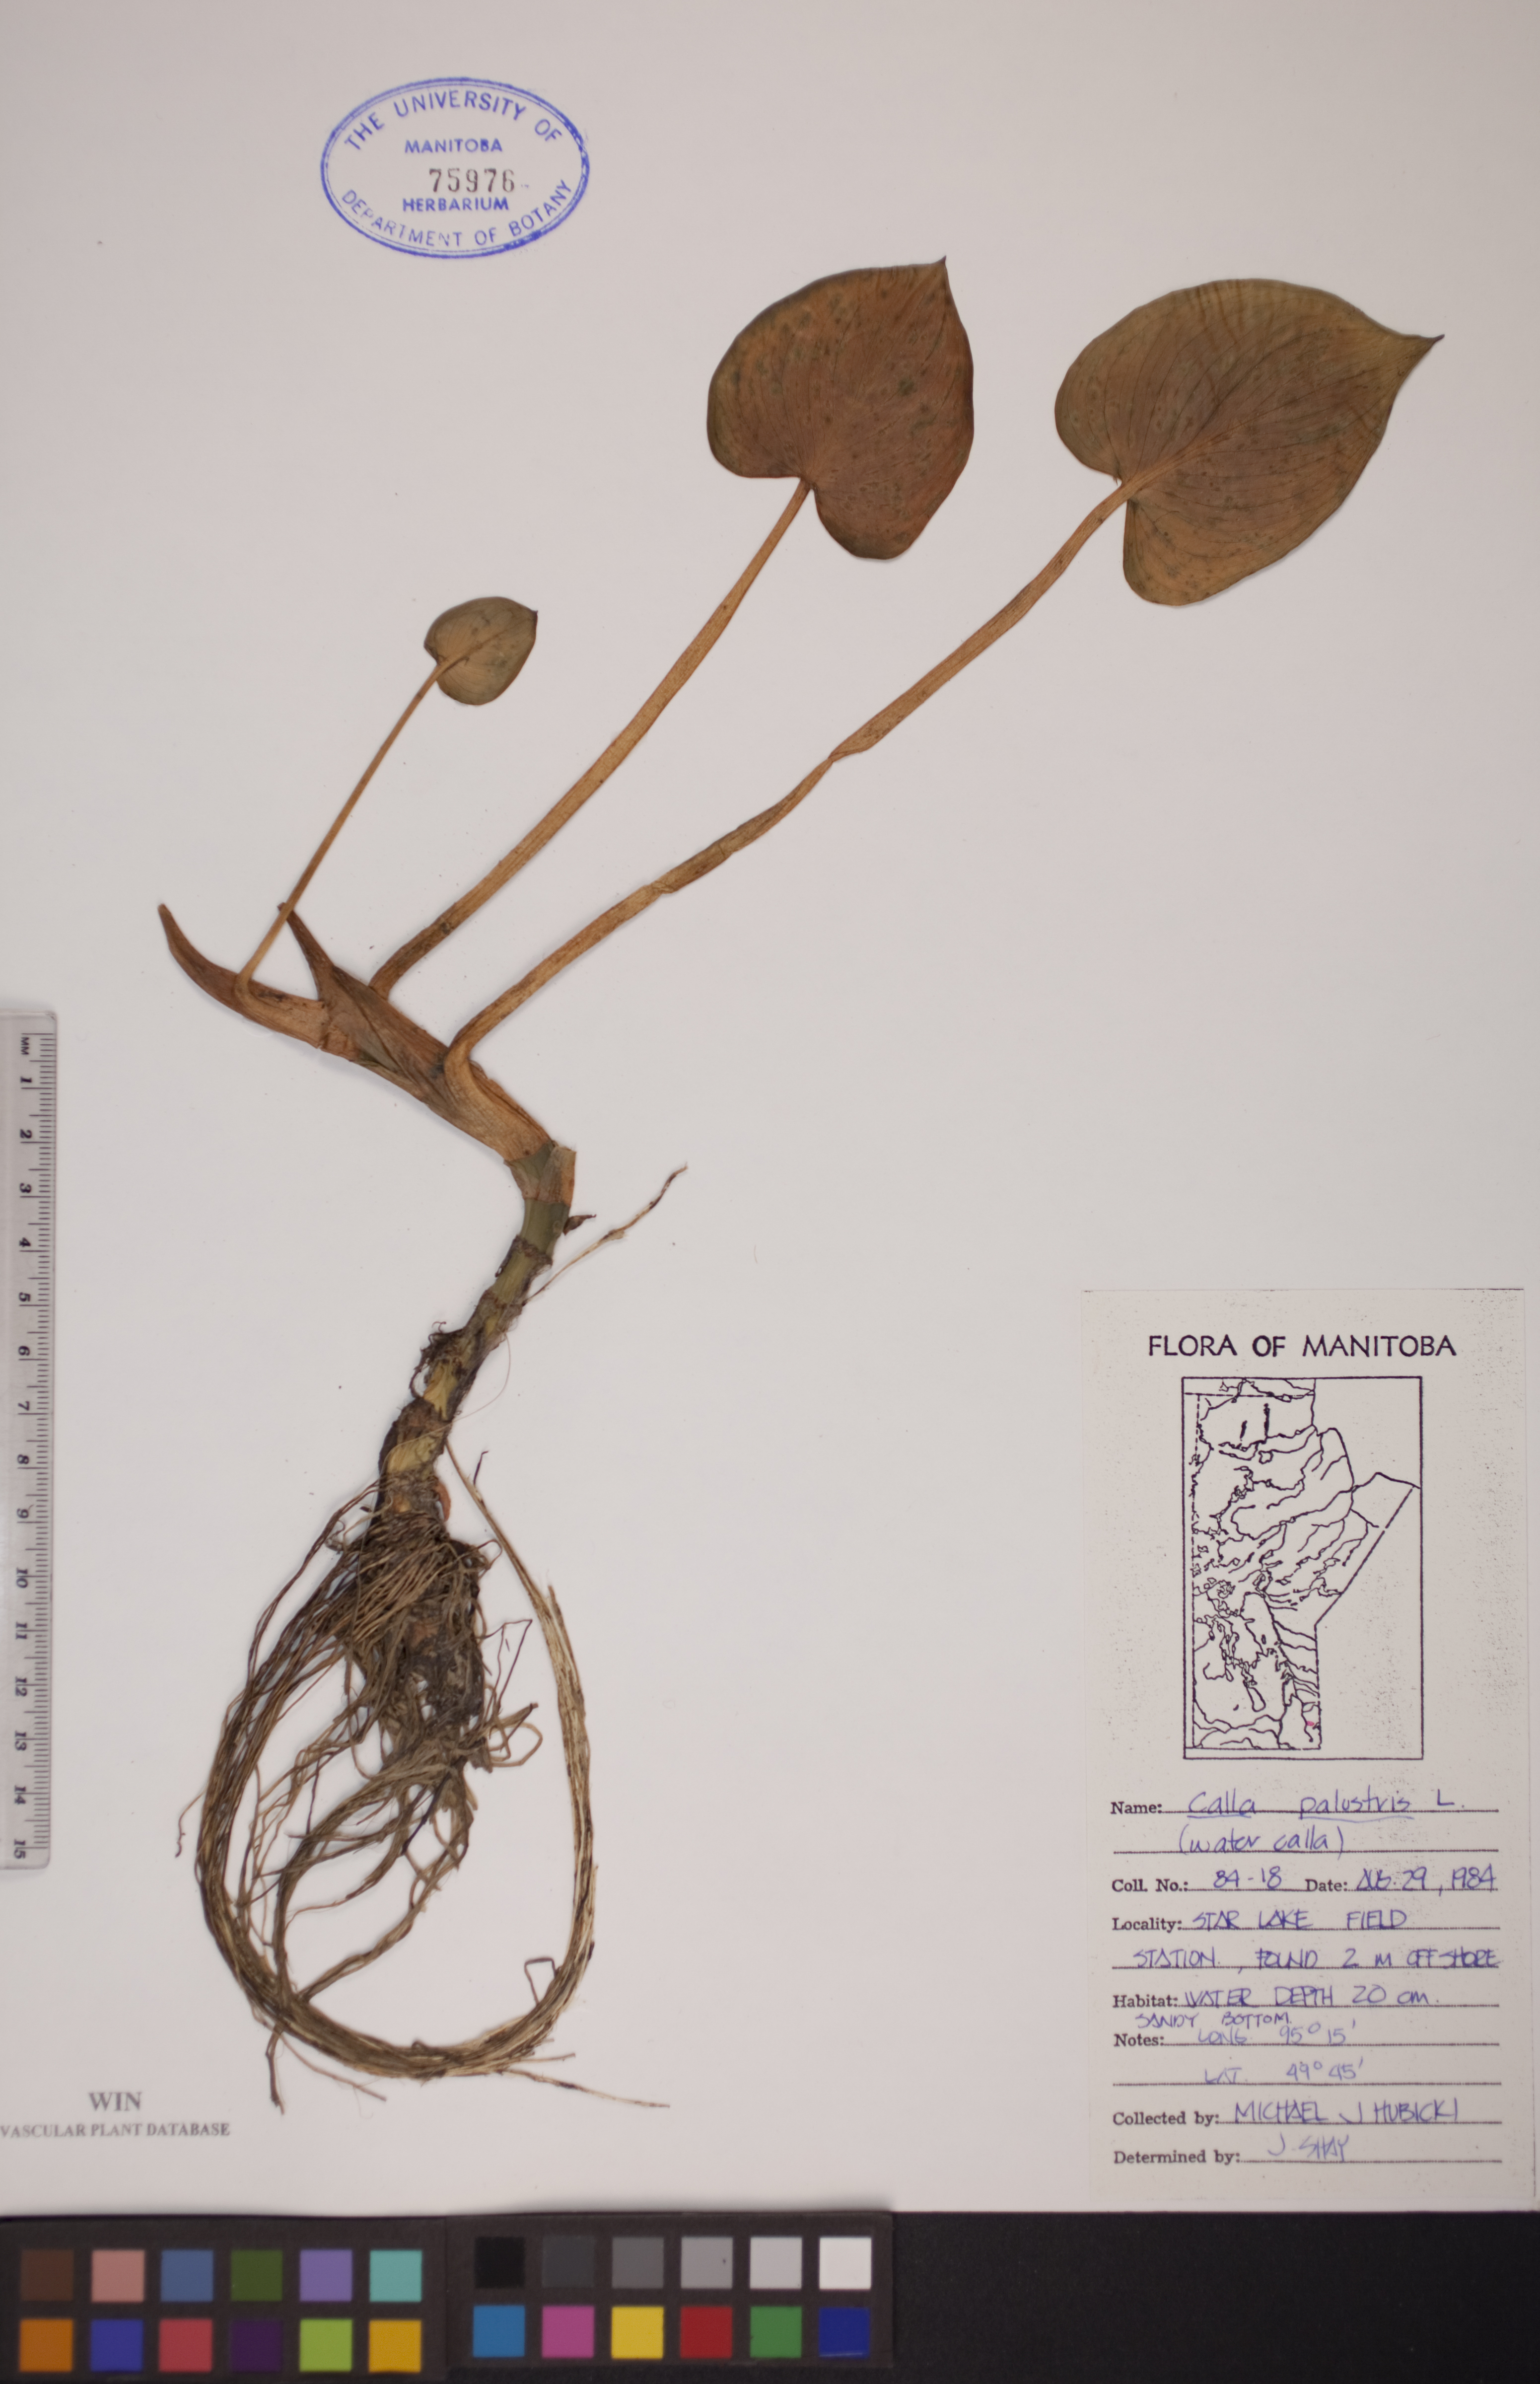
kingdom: Plantae
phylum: Tracheophyta
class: Liliopsida
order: Alismatales
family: Araceae
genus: Calla
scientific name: Calla palustris
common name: Bog arum
